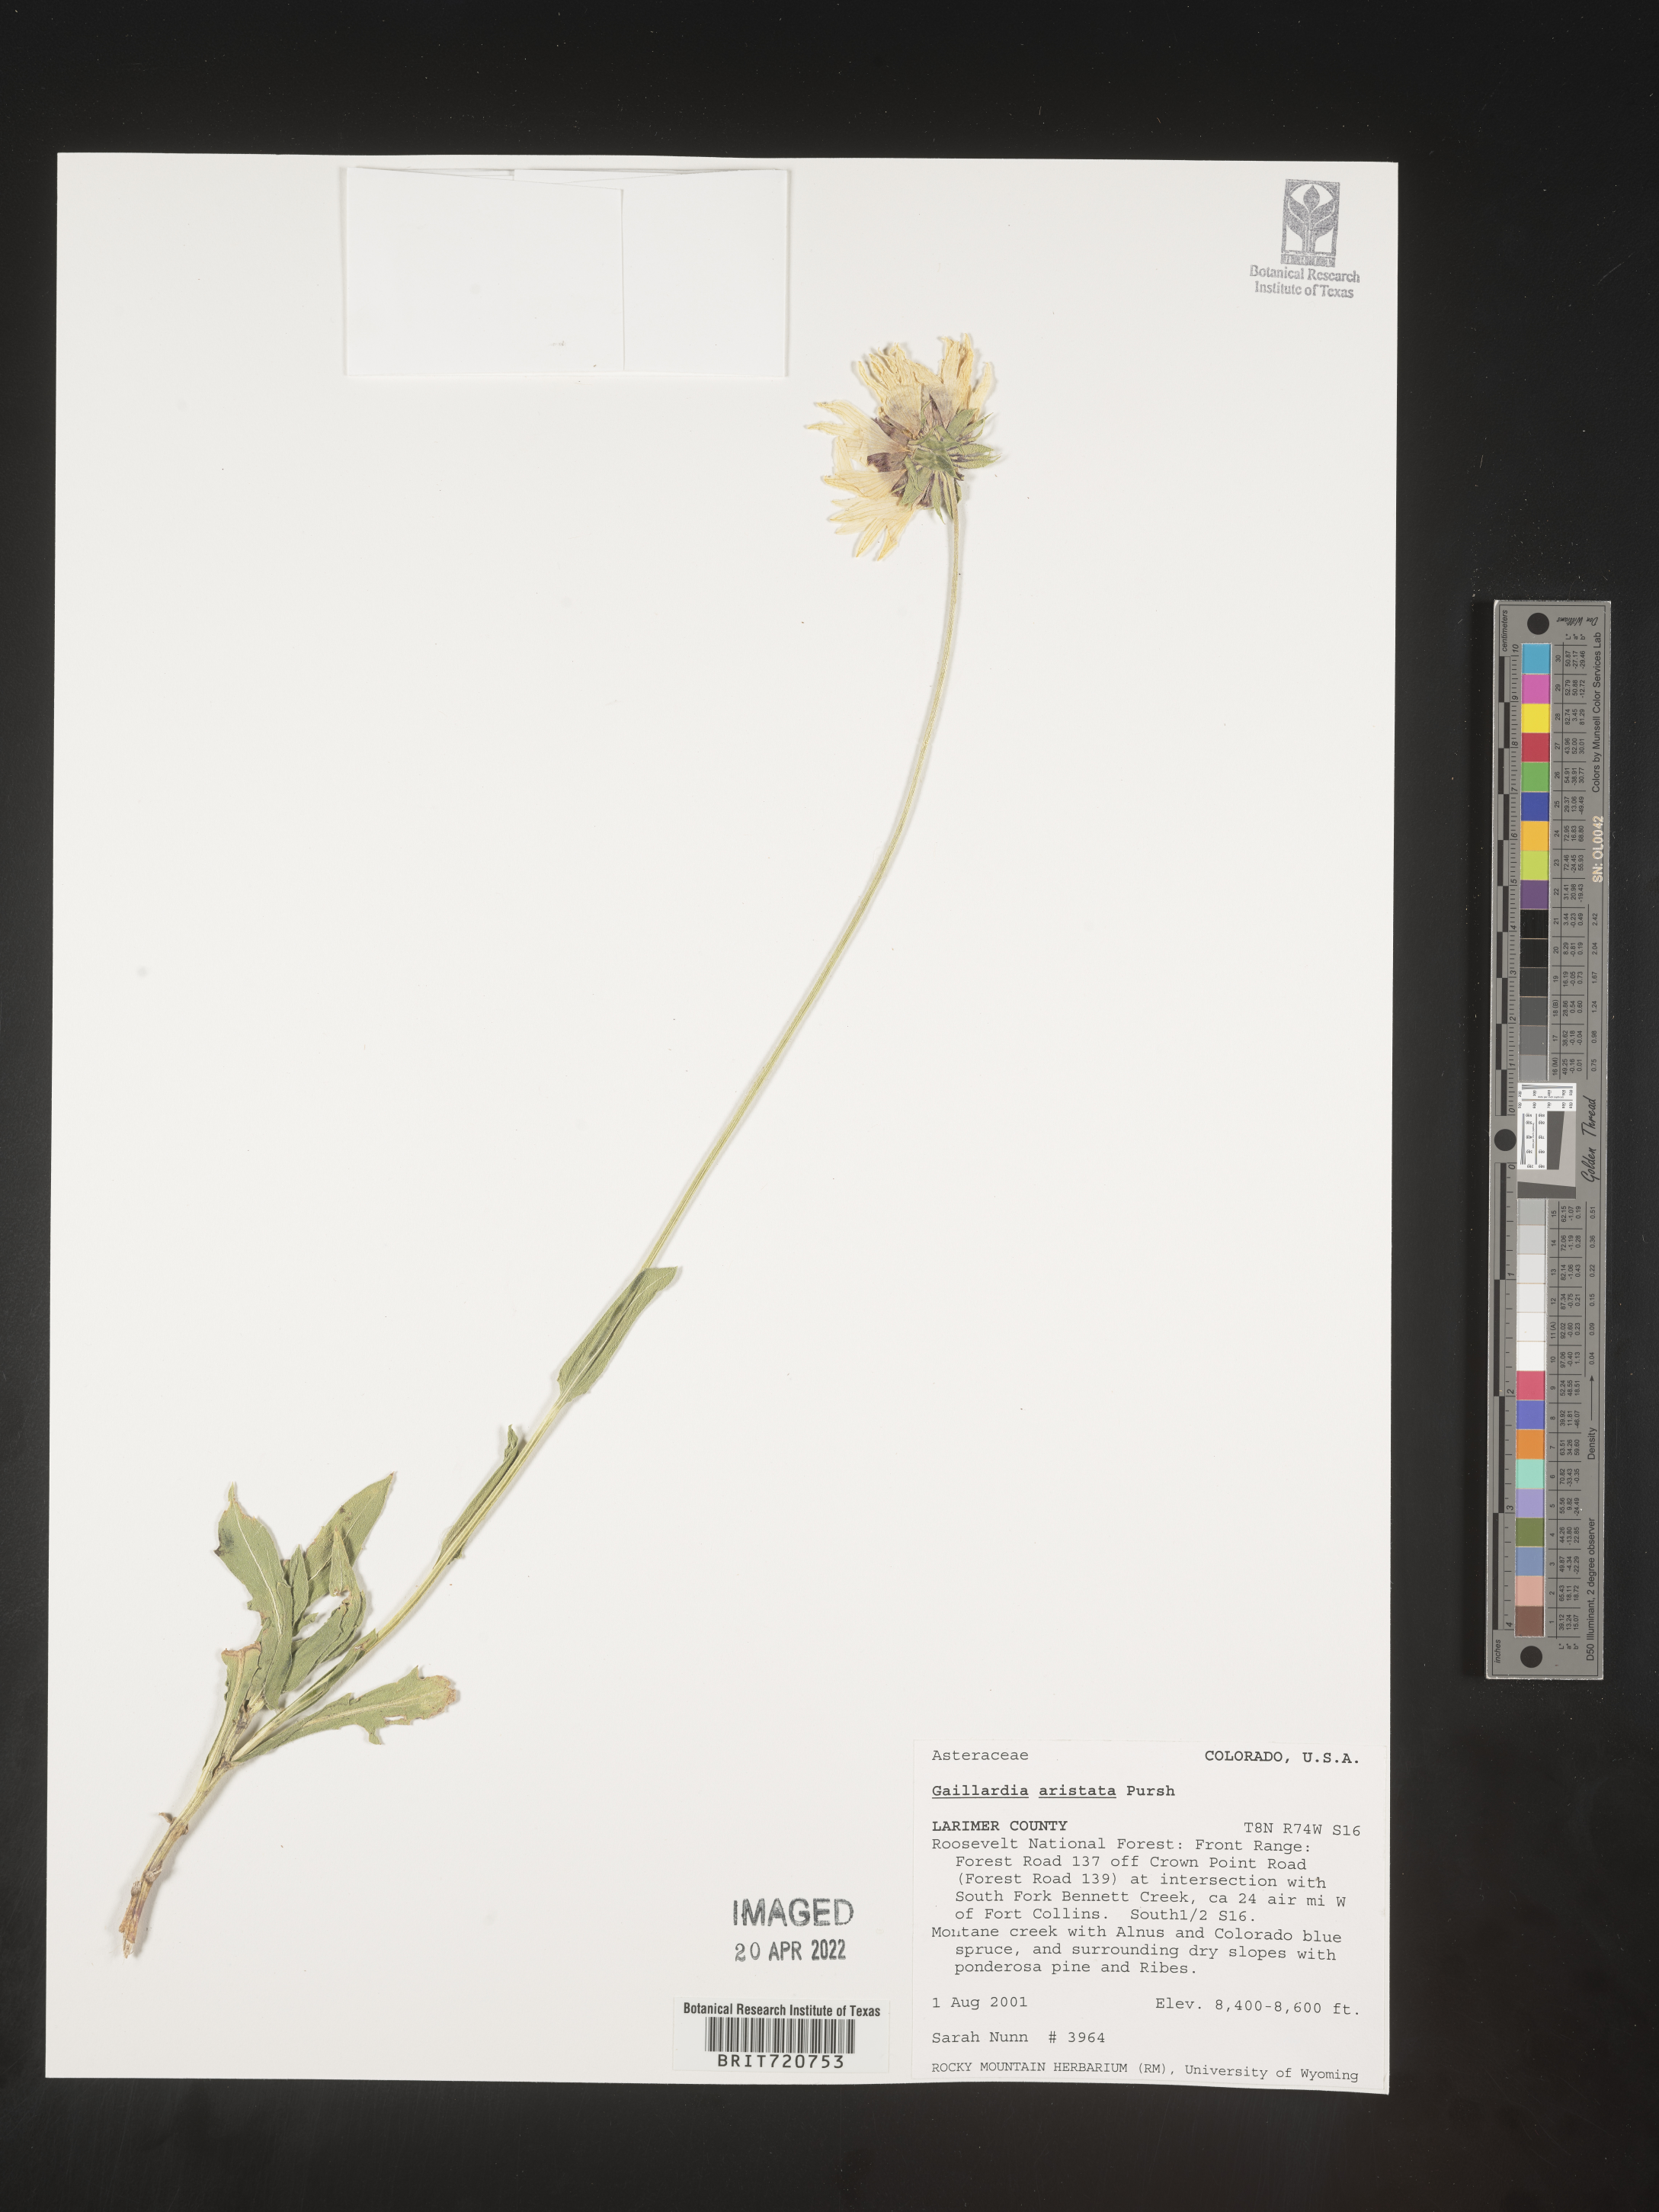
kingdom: Plantae
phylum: Tracheophyta
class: Magnoliopsida
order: Asterales
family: Asteraceae
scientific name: Asteraceae
